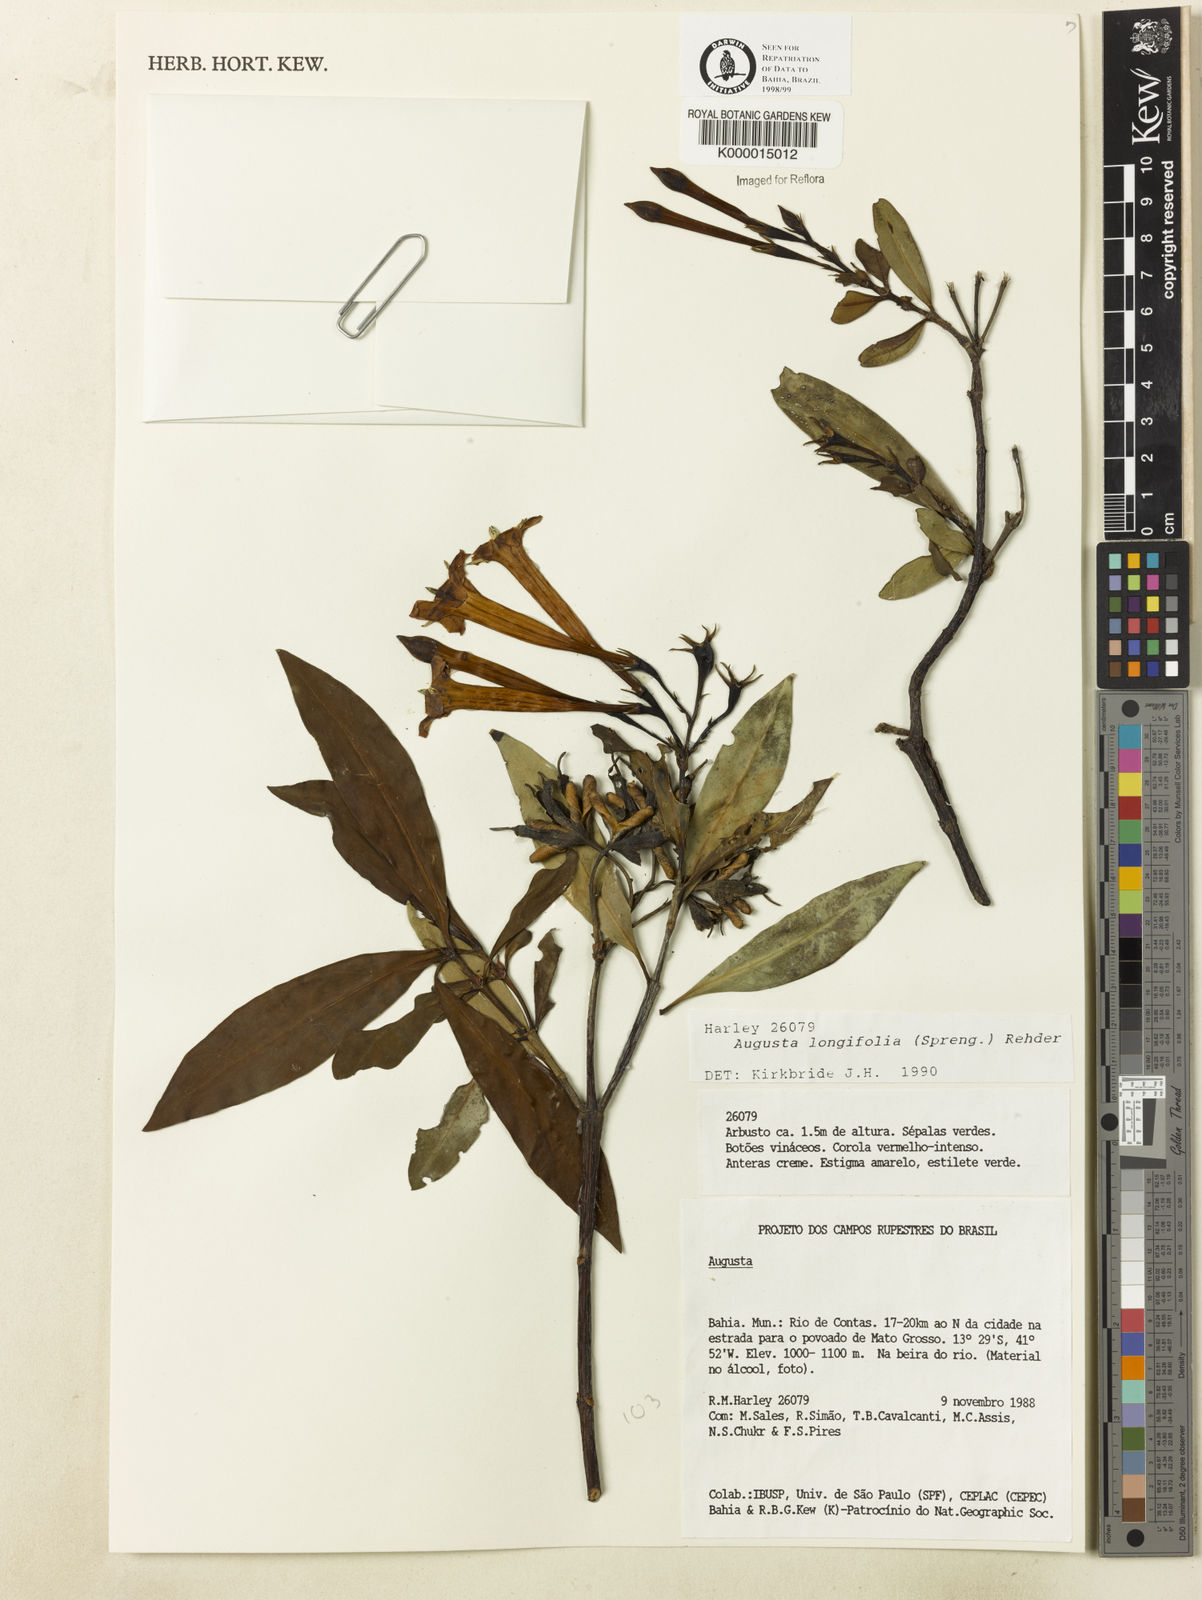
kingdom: Plantae
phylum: Tracheophyta
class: Magnoliopsida
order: Gentianales
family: Rubiaceae
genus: Augusta
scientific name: Augusta longifolia
